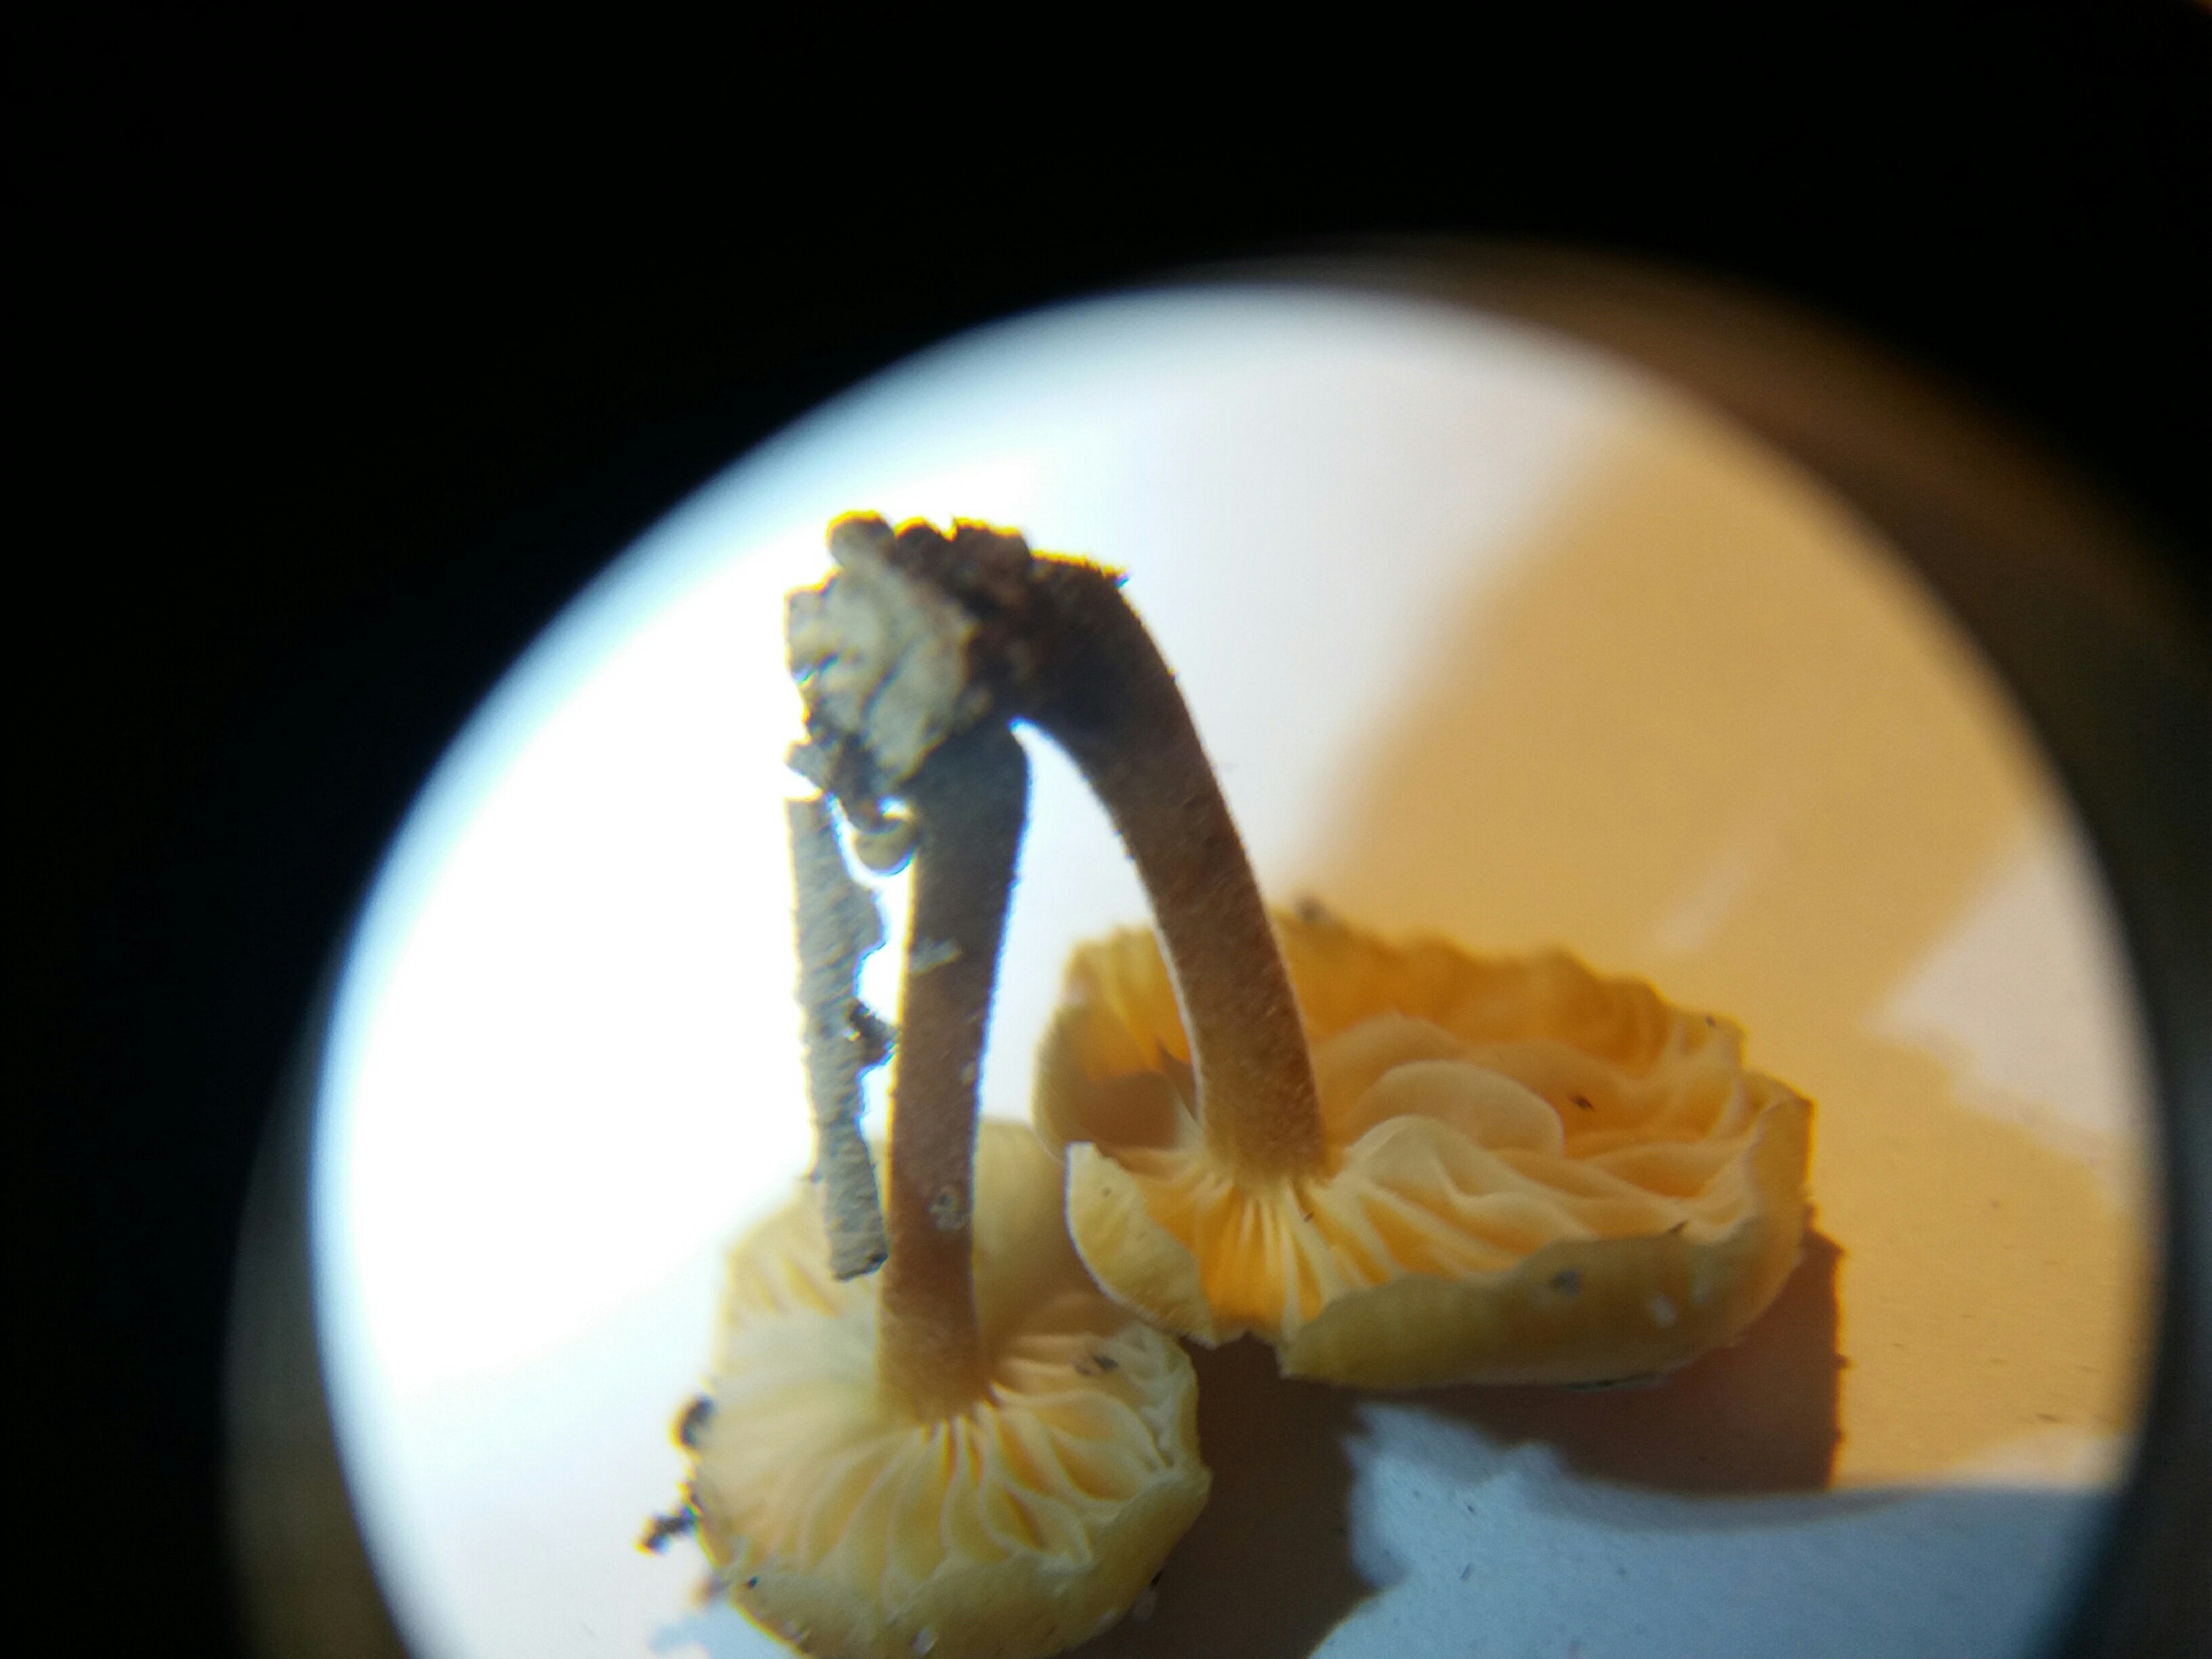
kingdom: Fungi
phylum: Basidiomycota
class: Agaricomycetes
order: Agaricales
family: Physalacriaceae
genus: Flammulina
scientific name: Flammulina
